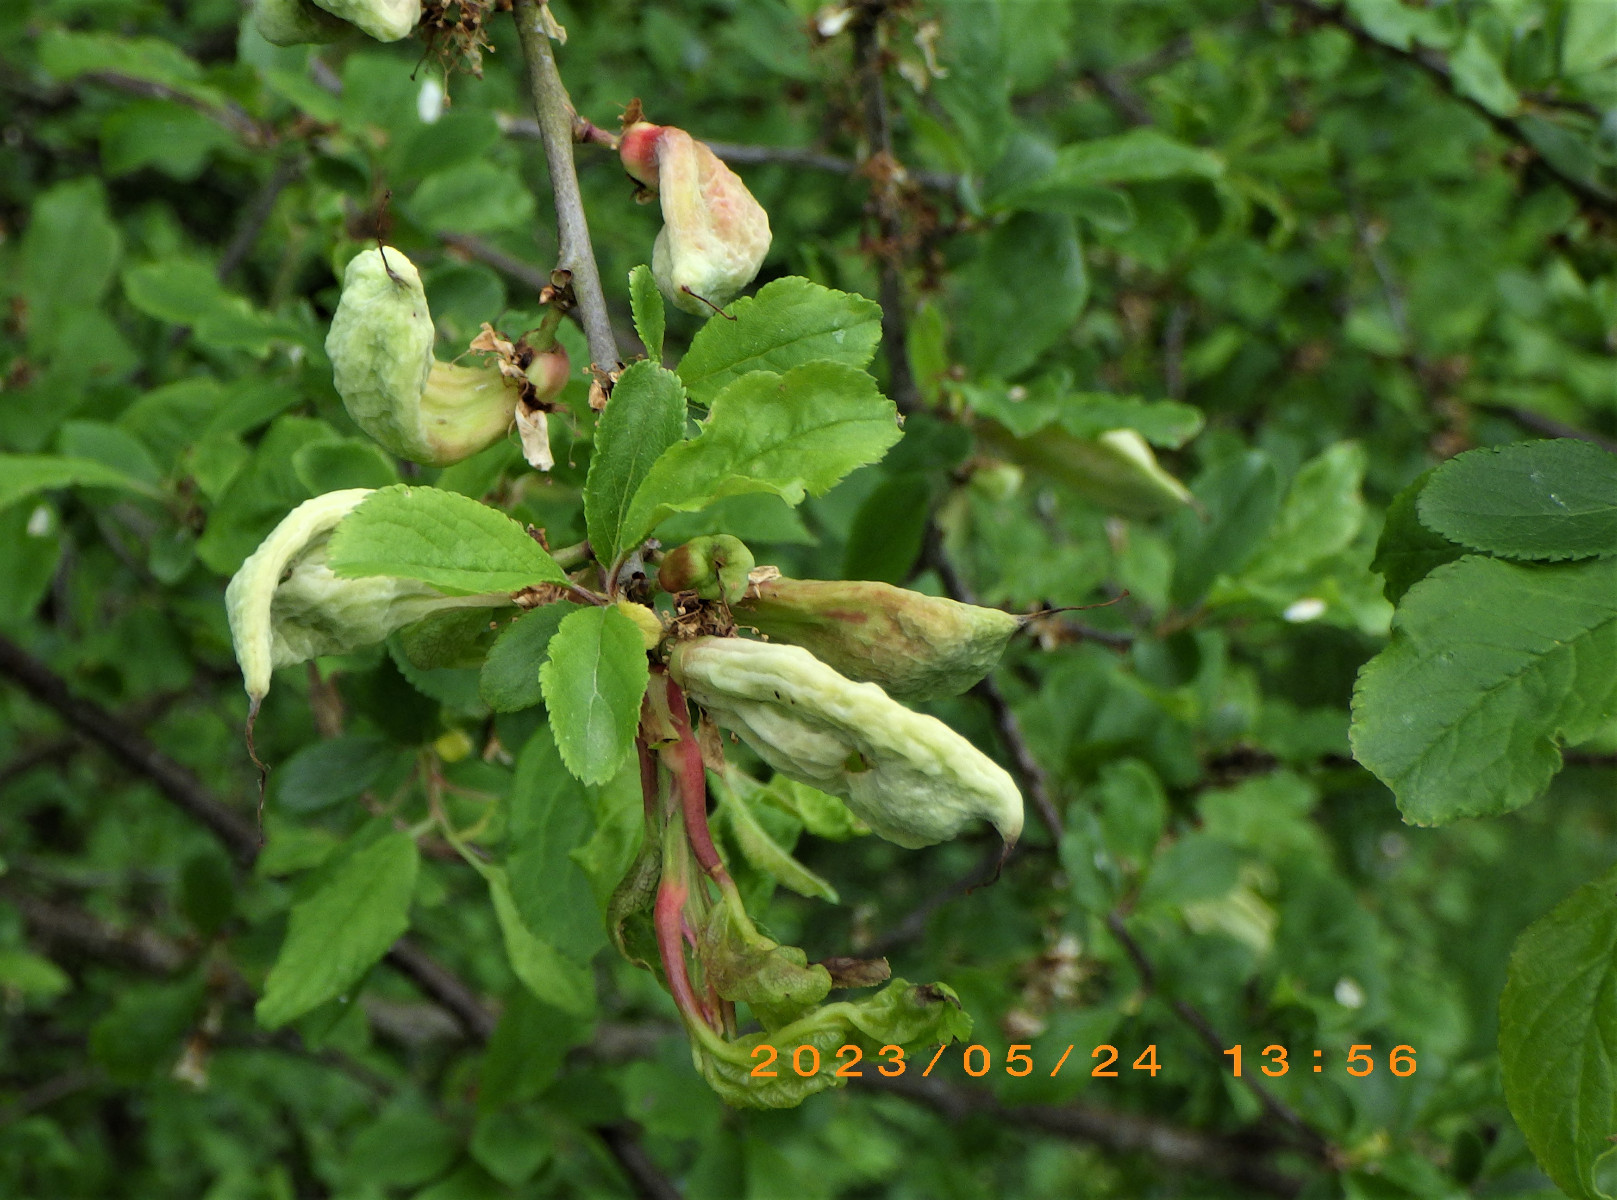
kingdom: Fungi
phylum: Ascomycota
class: Taphrinomycetes
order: Taphrinales
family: Taphrinaceae
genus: Taphrina
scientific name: Taphrina pruni
